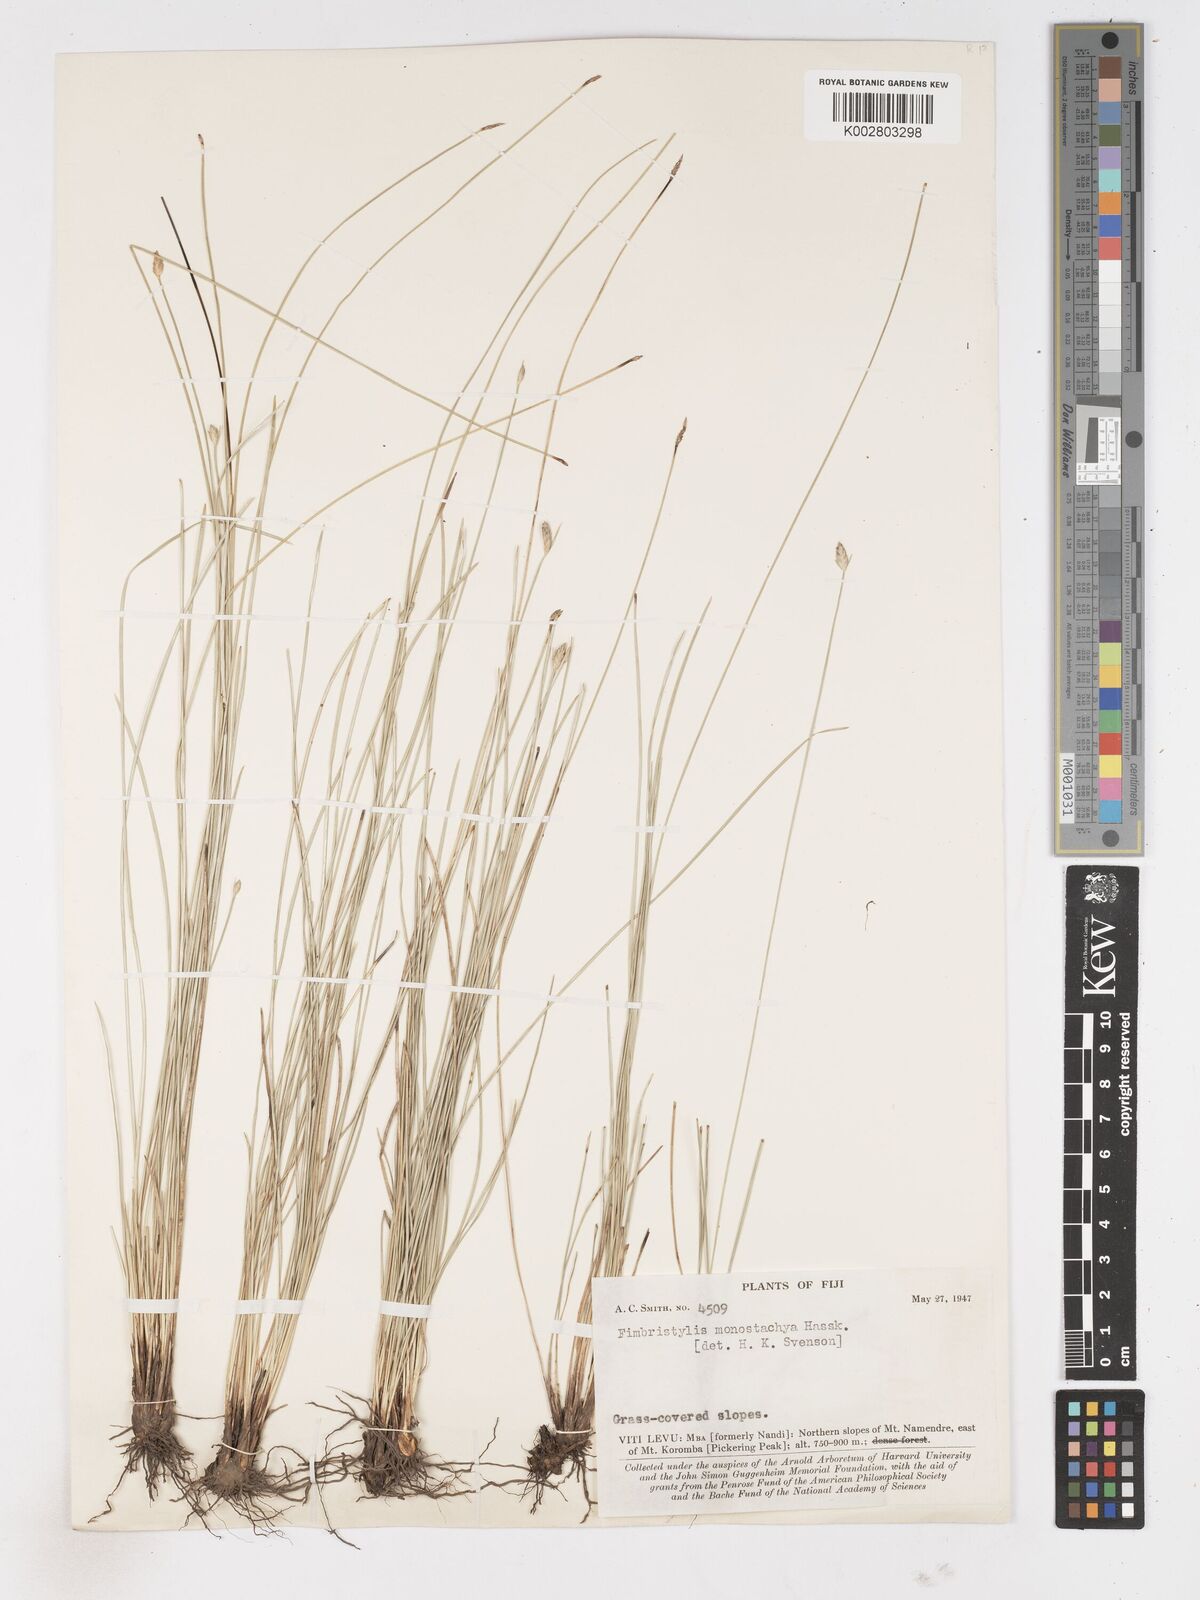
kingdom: Plantae
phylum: Tracheophyta
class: Liliopsida
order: Poales
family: Cyperaceae
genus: Abildgaardia
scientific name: Abildgaardia ovata
